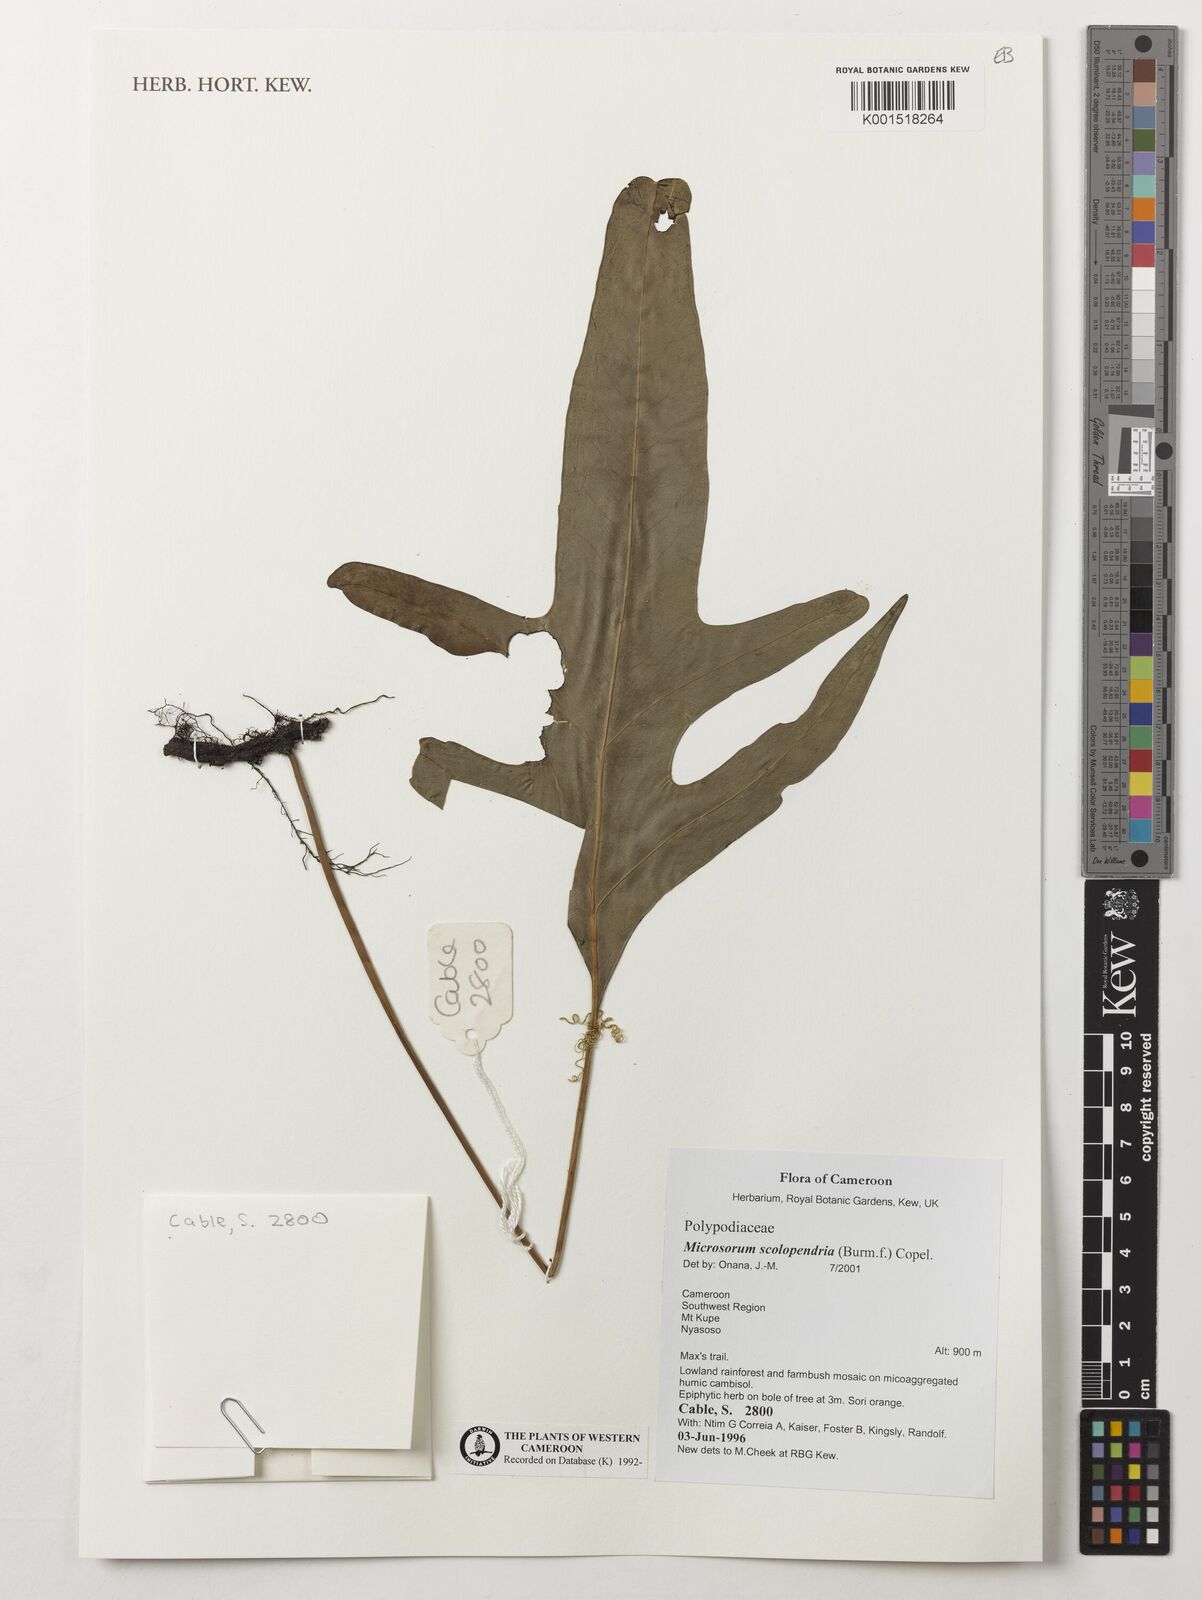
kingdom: Plantae
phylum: Tracheophyta
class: Polypodiopsida
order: Polypodiales
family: Polypodiaceae
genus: Microsorum
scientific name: Microsorum scolopendria
